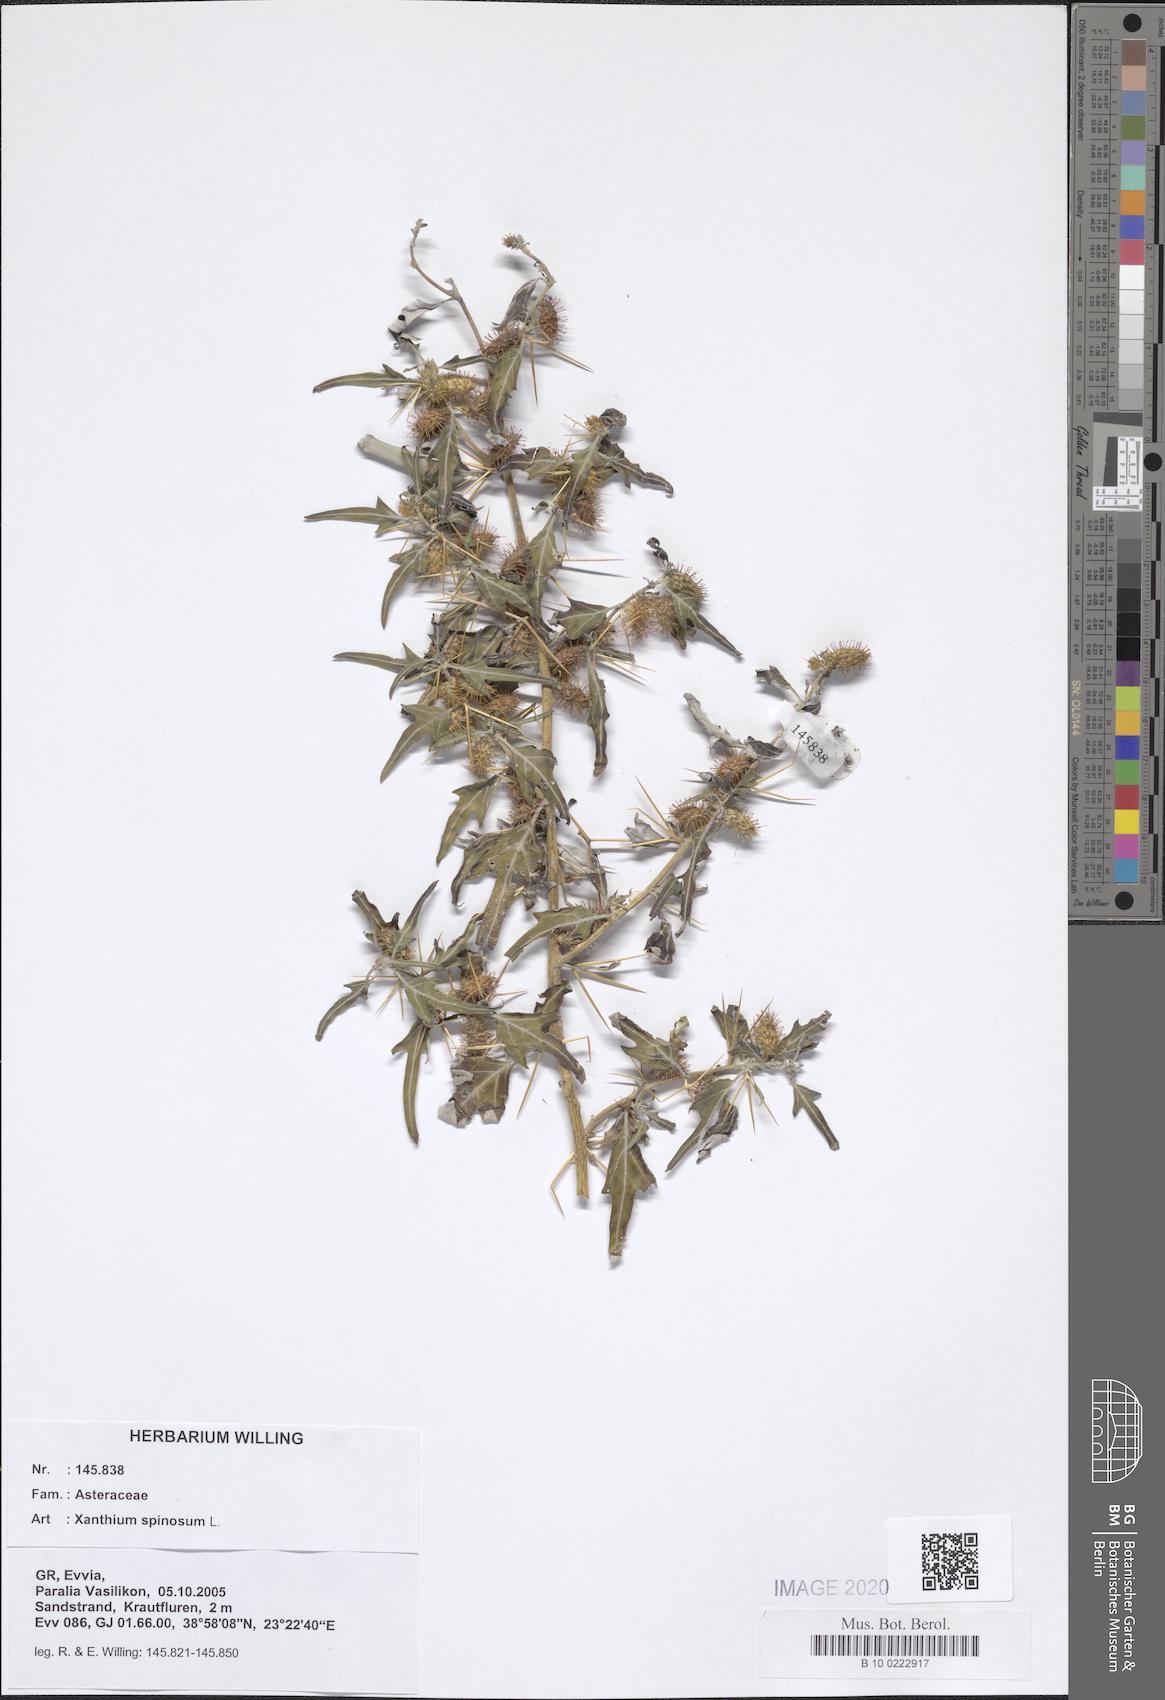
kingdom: Plantae
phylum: Tracheophyta
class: Magnoliopsida
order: Asterales
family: Asteraceae
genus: Xanthium
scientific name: Xanthium spinosum
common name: Spiny cocklebur
